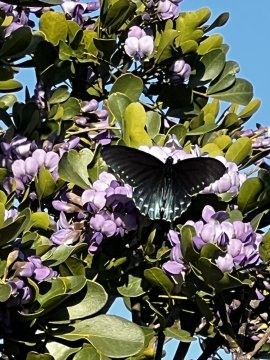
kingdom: Animalia
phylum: Arthropoda
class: Insecta
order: Lepidoptera
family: Papilionidae
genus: Battus
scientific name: Battus philenor
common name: Pipevine Swallowtail
